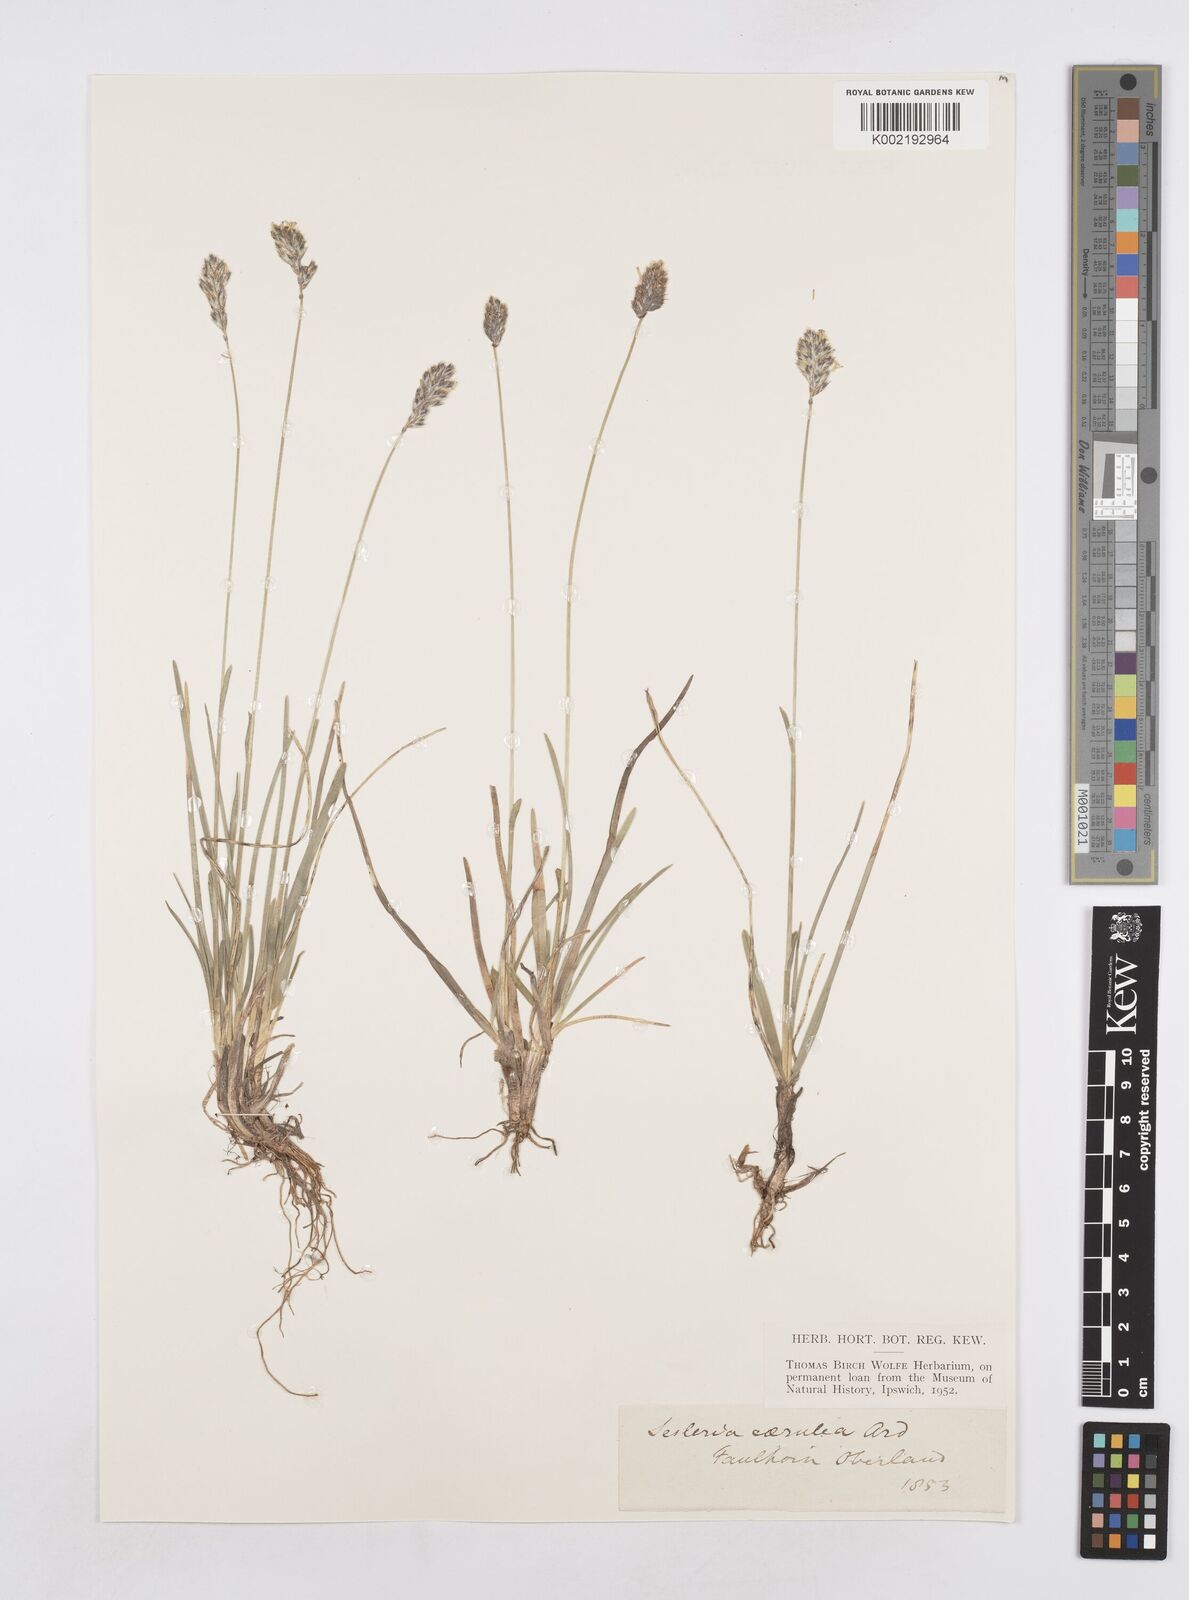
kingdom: Plantae
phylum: Tracheophyta
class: Liliopsida
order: Poales
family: Poaceae
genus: Sesleria
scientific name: Sesleria caerulea
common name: Blue moor-grass
